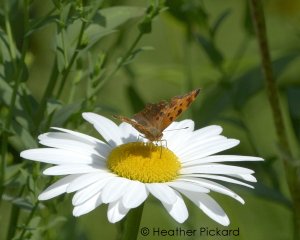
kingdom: Animalia
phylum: Arthropoda
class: Insecta
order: Lepidoptera
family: Nymphalidae
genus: Polygonia
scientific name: Polygonia progne
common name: Gray Comma
